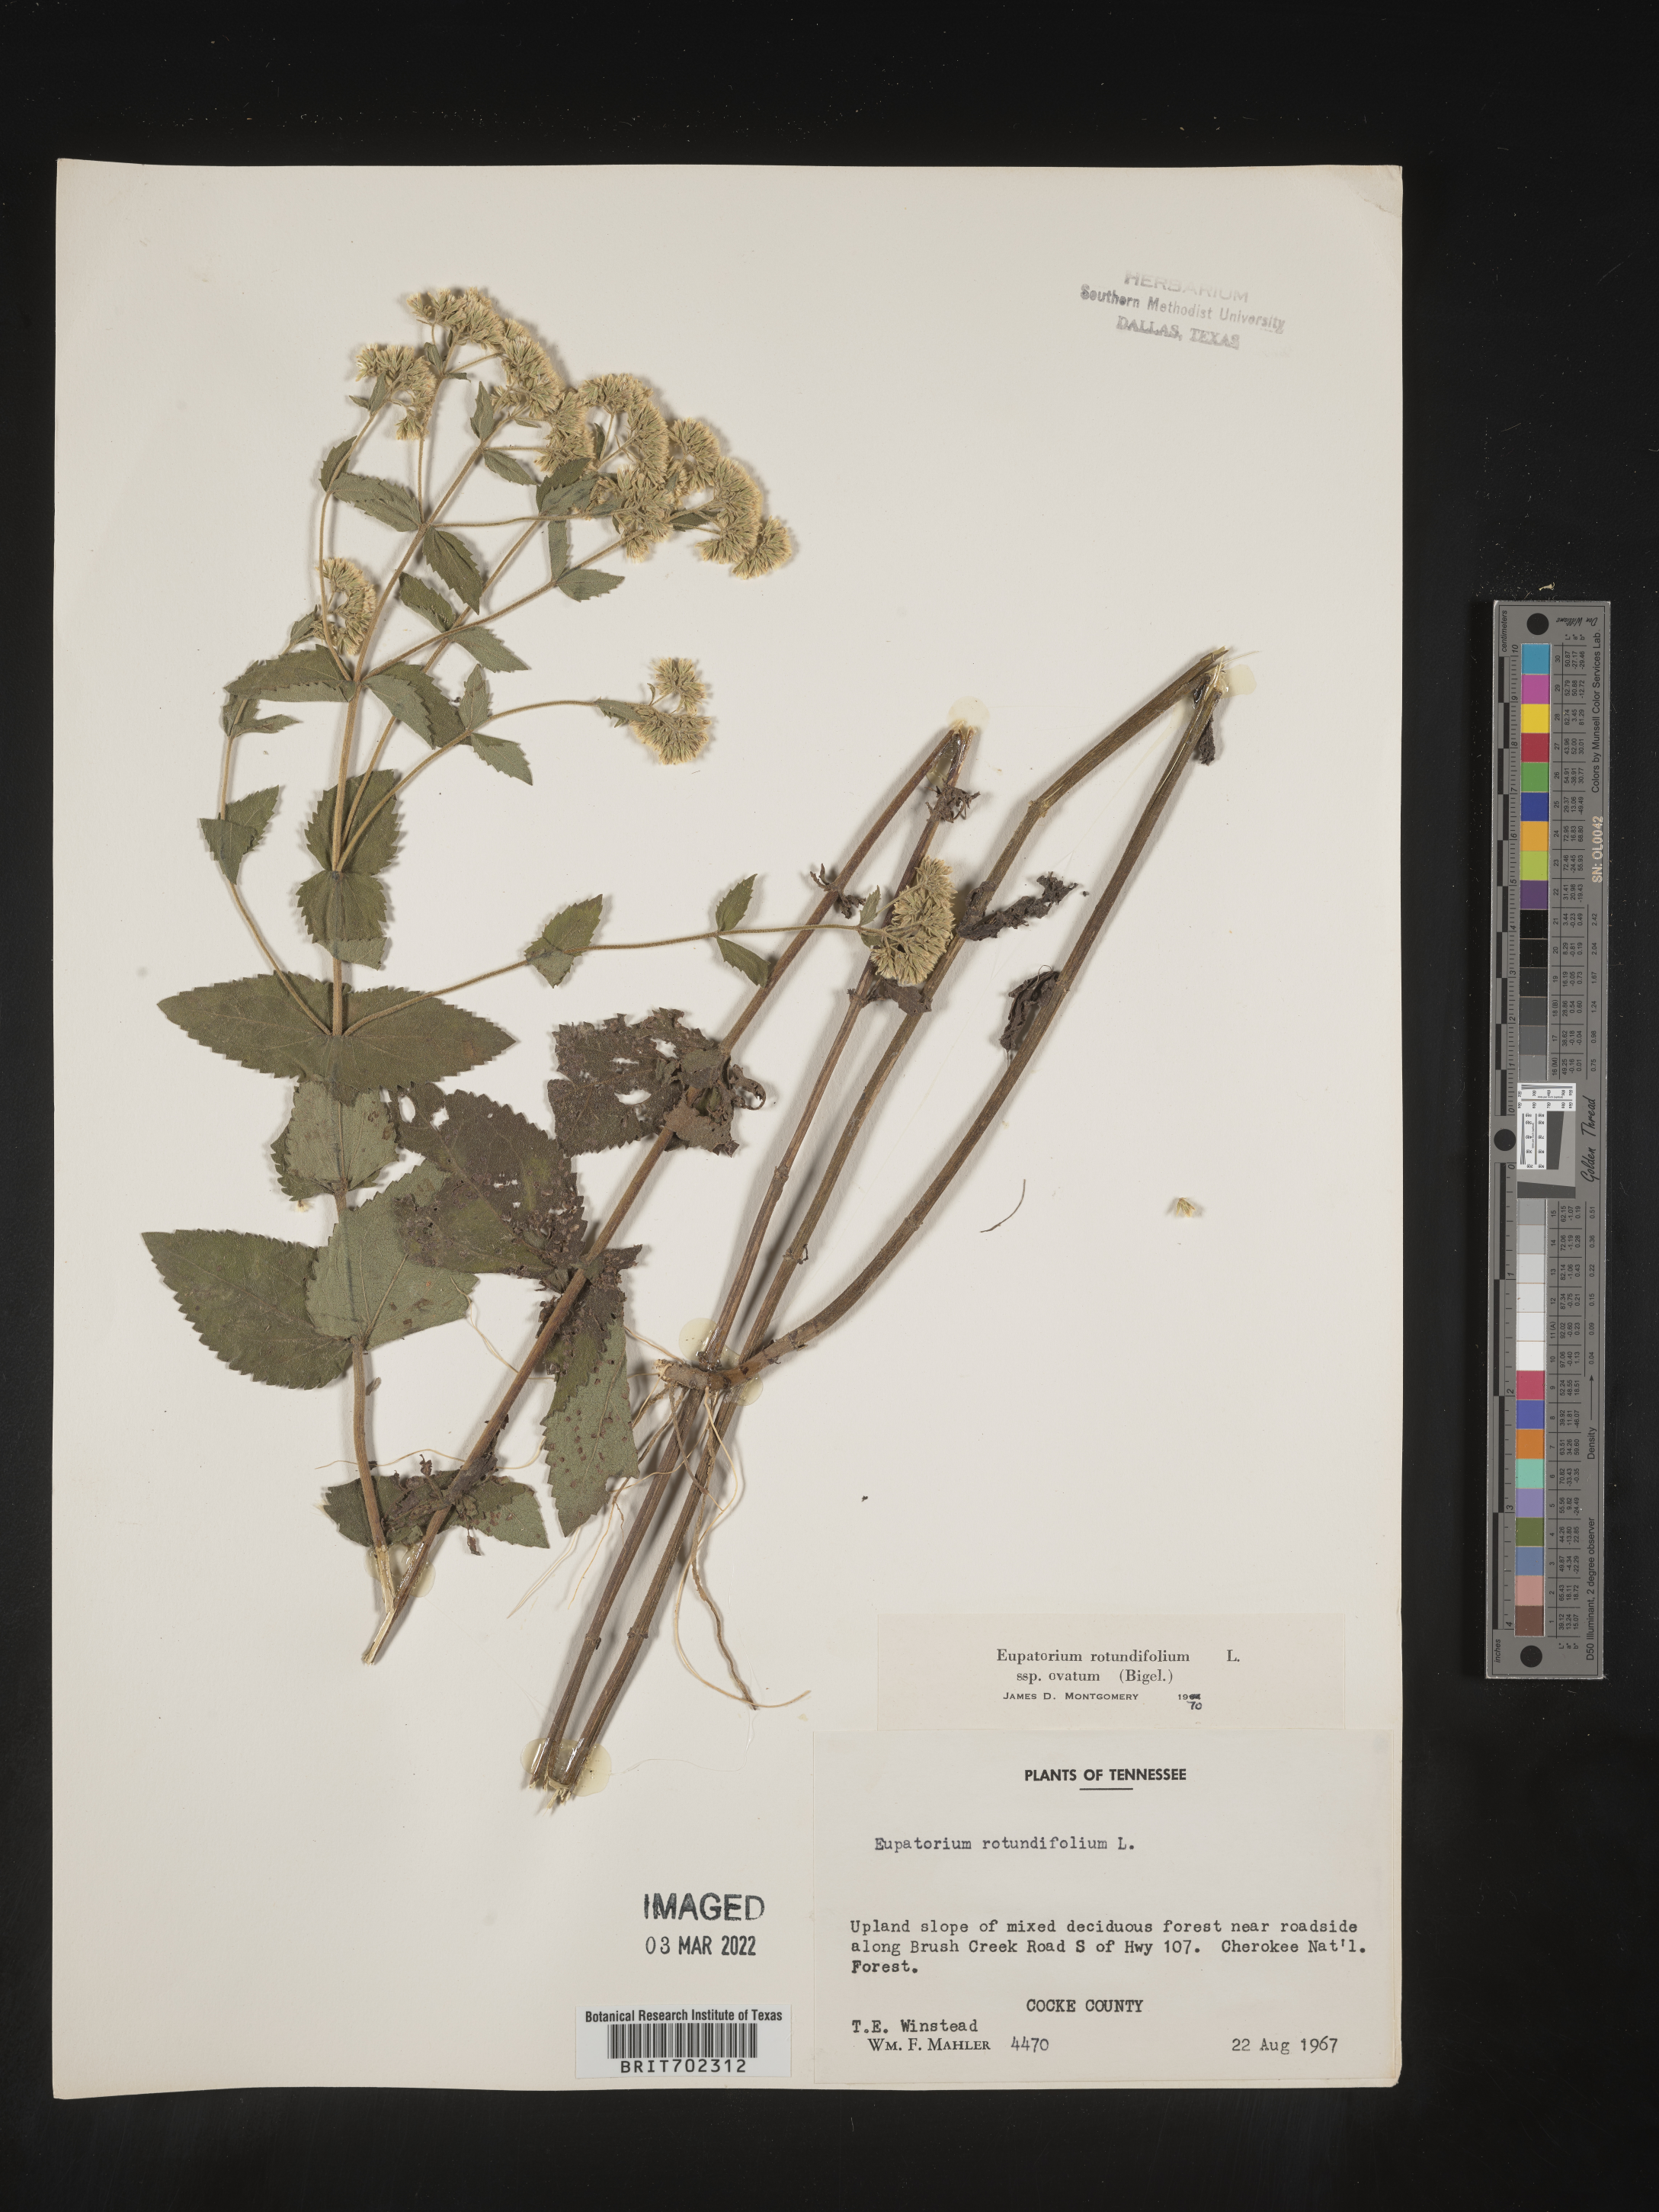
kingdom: Plantae
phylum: Tracheophyta
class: Magnoliopsida
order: Asterales
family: Asteraceae
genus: Eupatorium
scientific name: Eupatorium rotundifolium
